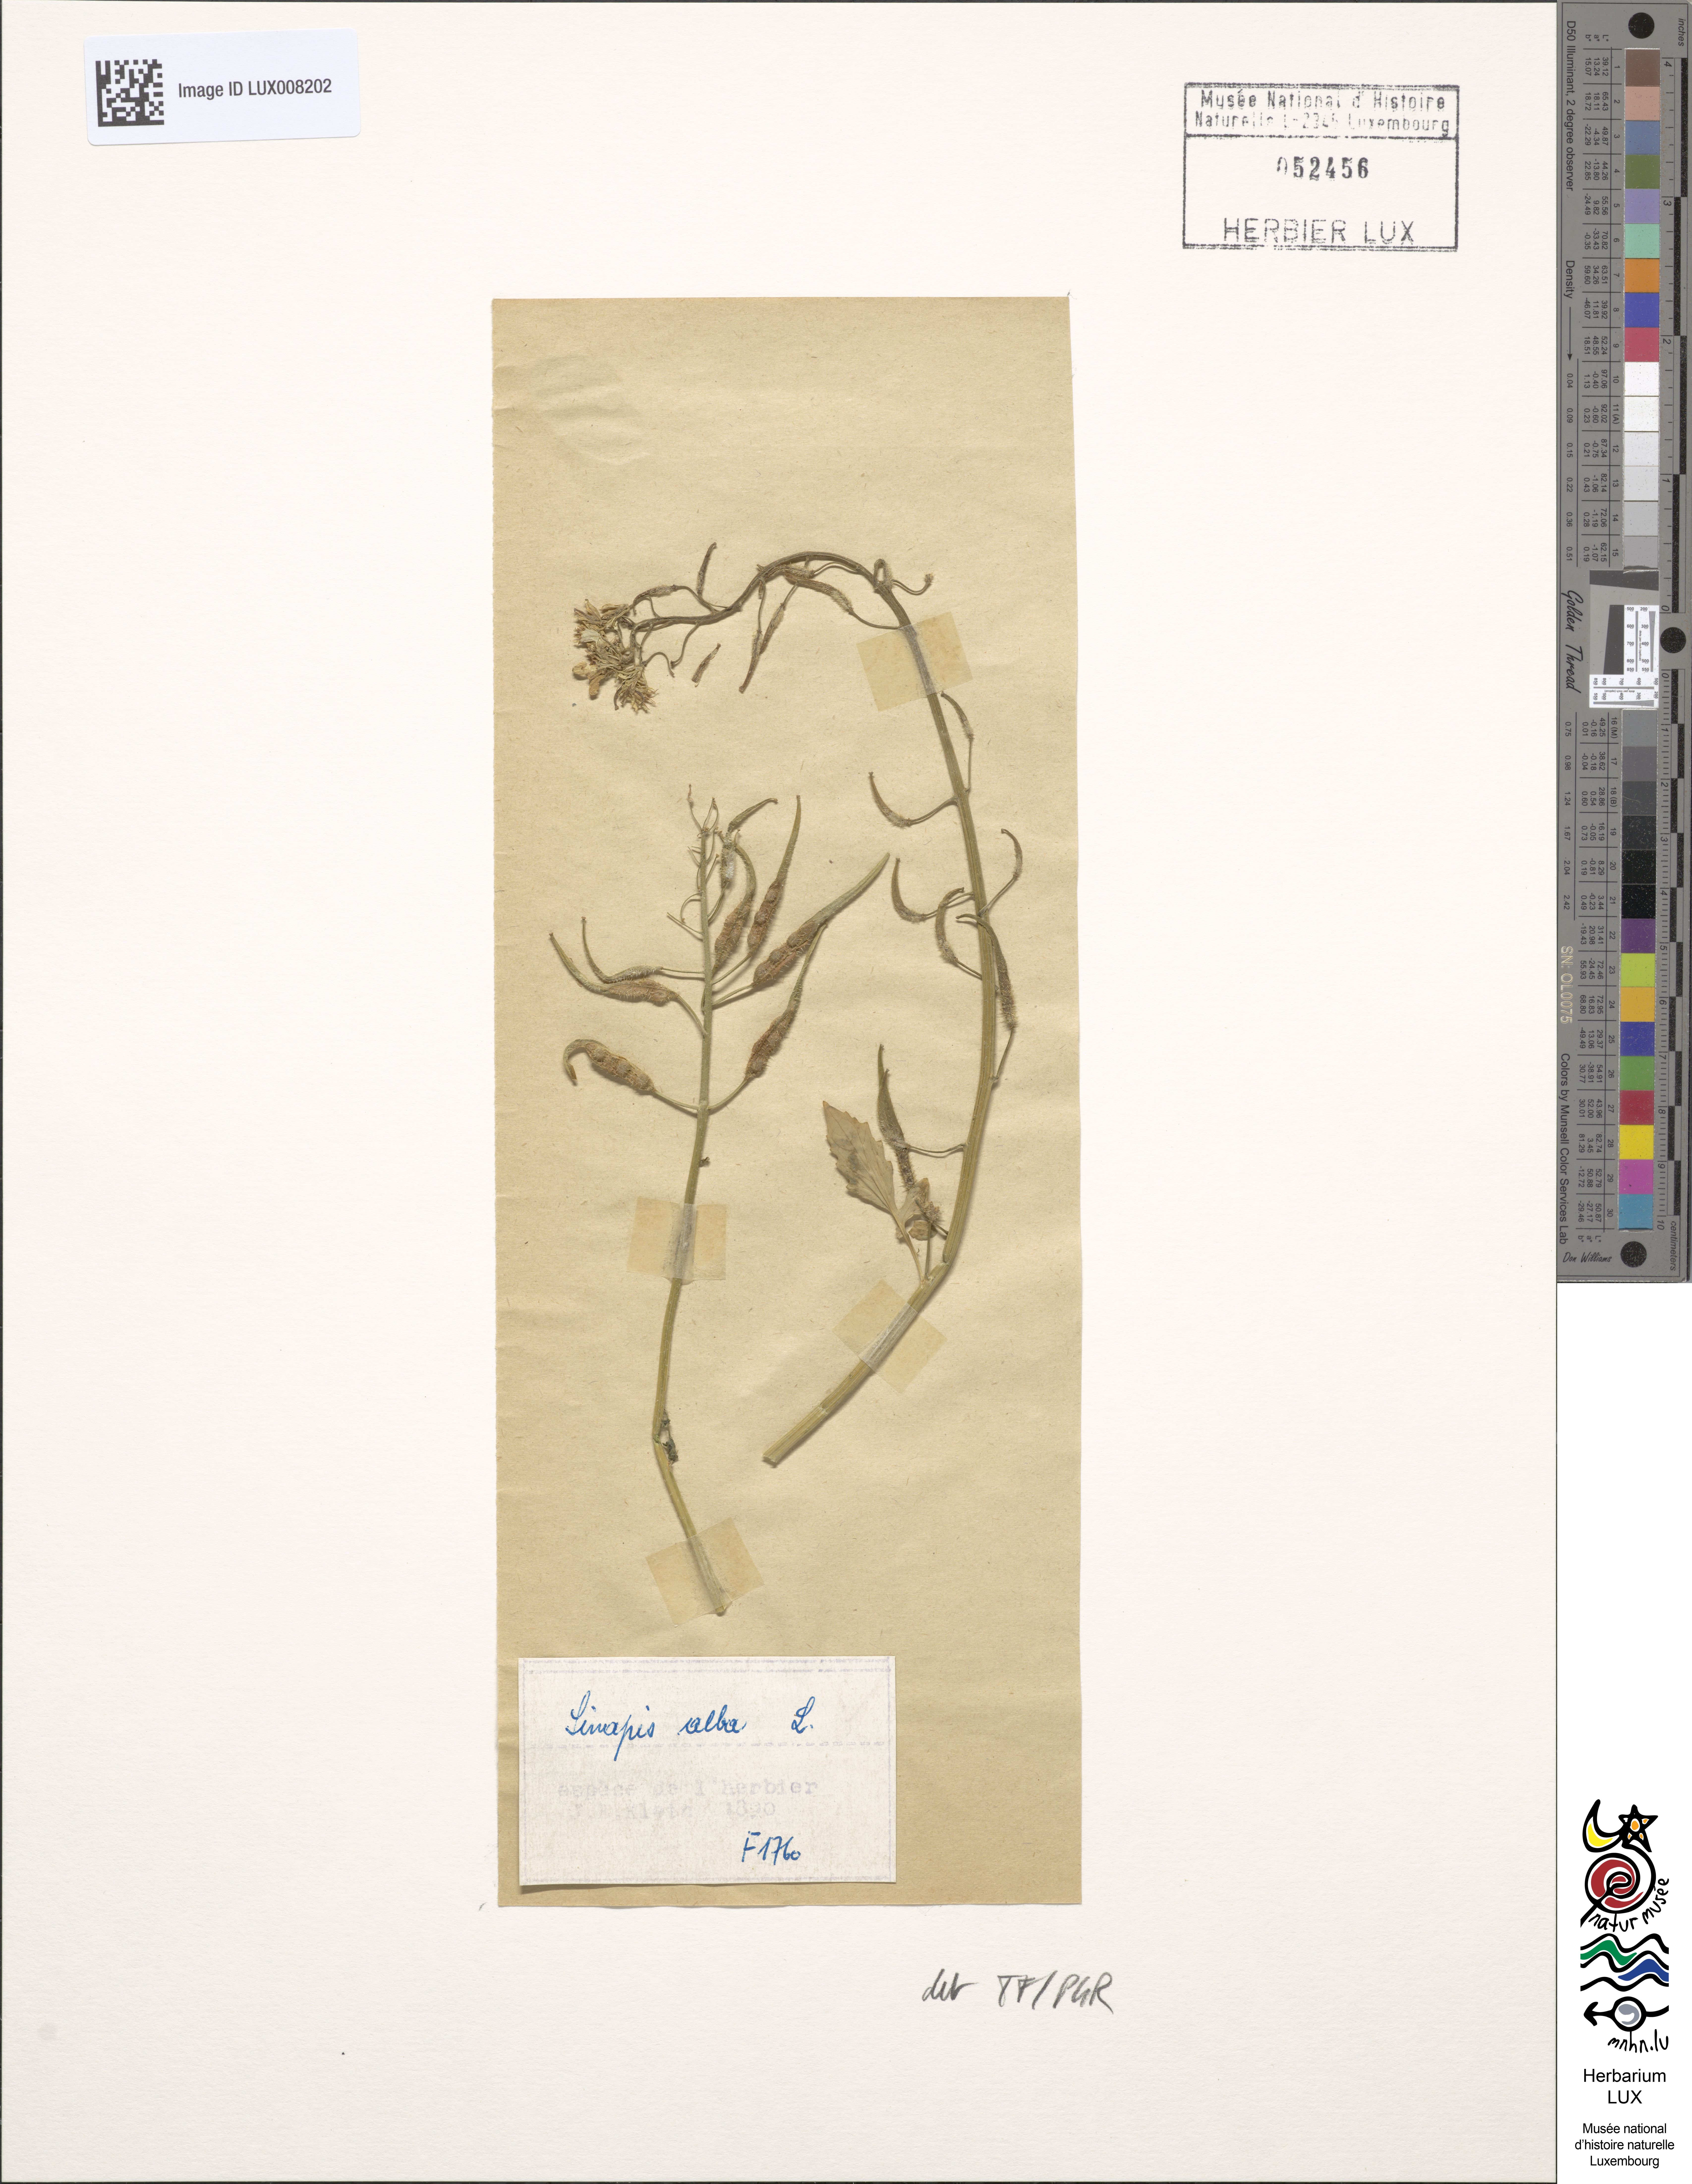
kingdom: Plantae
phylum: Tracheophyta
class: Magnoliopsida
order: Brassicales
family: Brassicaceae
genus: Sinapis
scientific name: Sinapis alba
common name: White mustard
